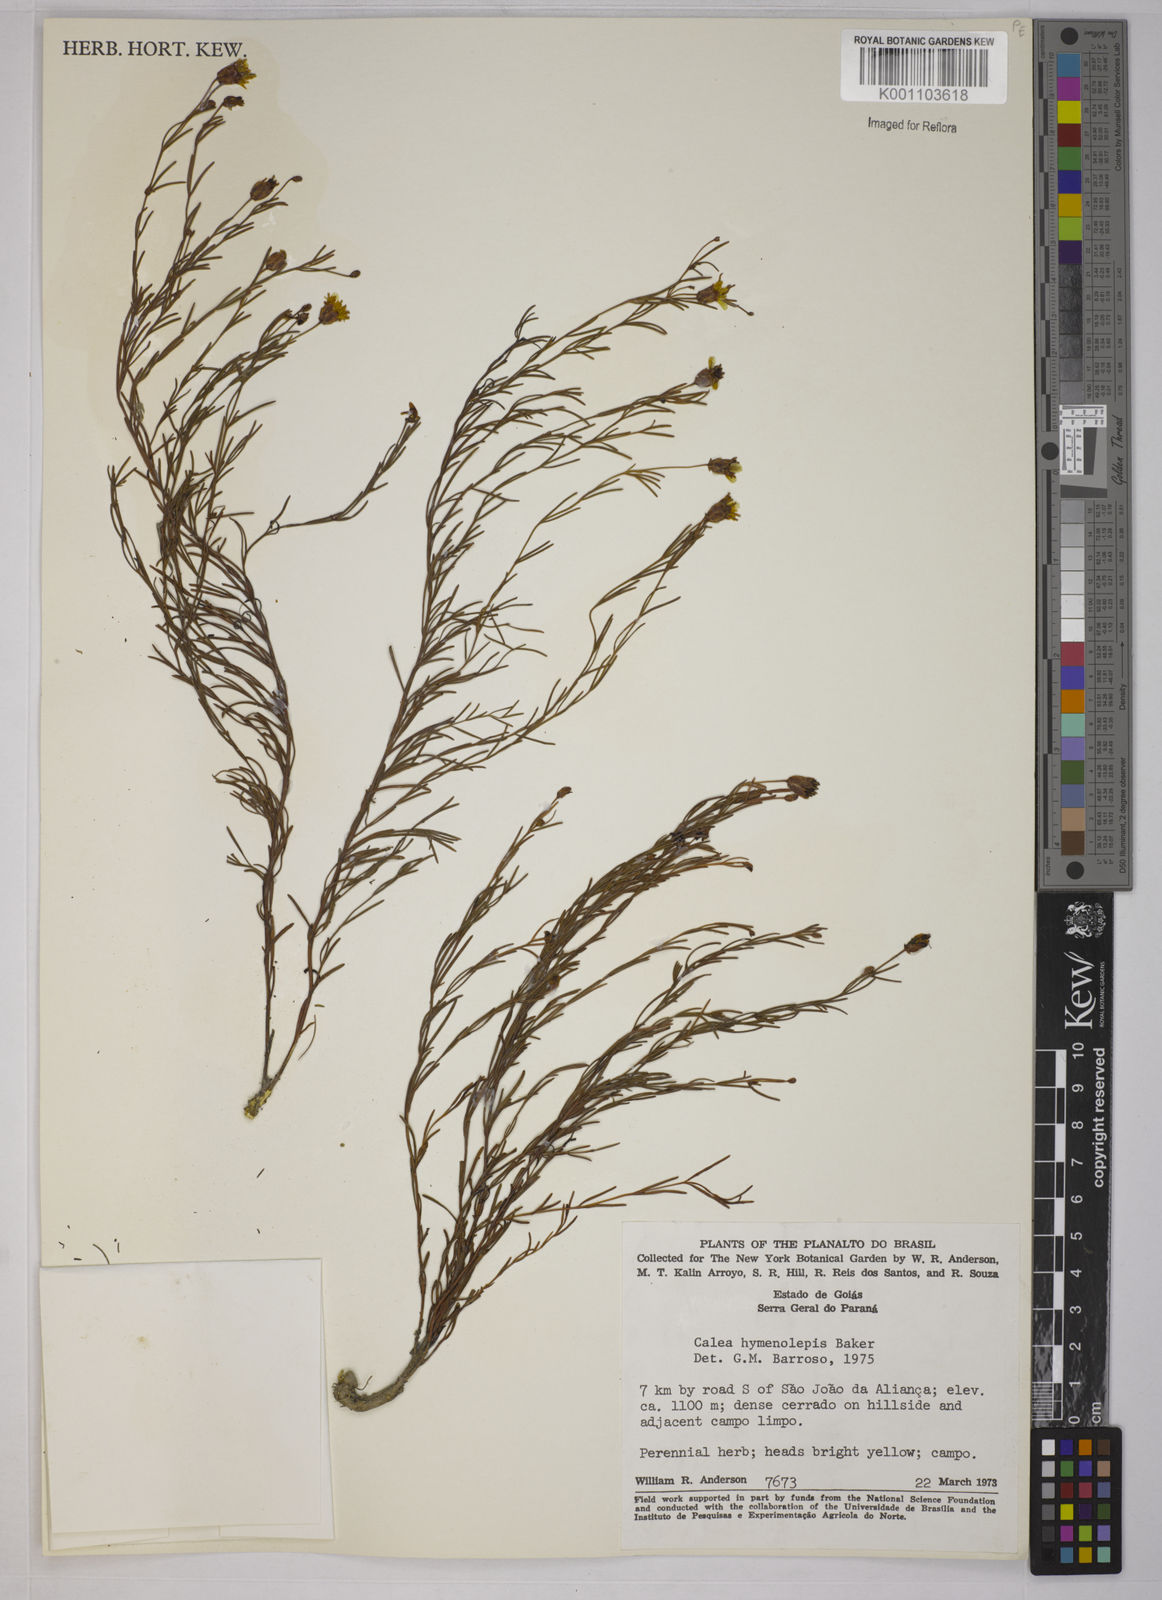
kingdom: Plantae
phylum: Tracheophyta
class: Magnoliopsida
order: Asterales
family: Asteraceae
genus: Calea
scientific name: Calea hymenolepis
